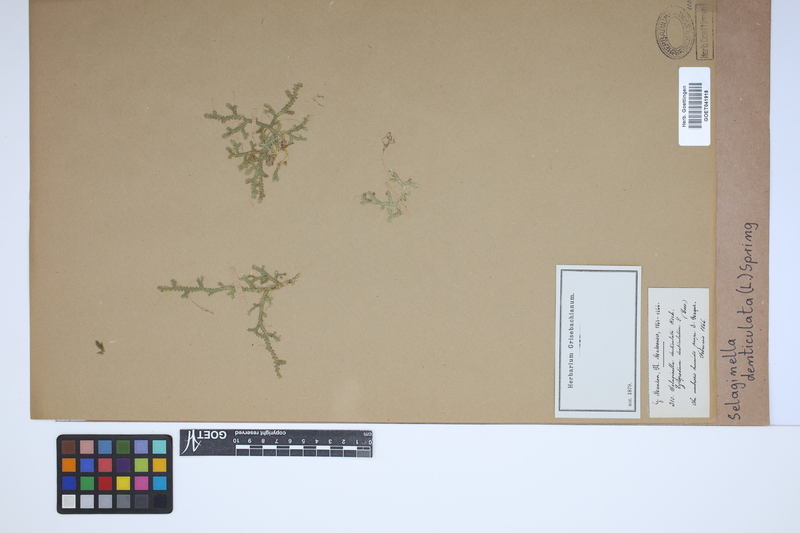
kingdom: Plantae
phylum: Tracheophyta
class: Lycopodiopsida
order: Selaginellales
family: Selaginellaceae
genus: Selaginella
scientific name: Selaginella denticulata
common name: Toothed-leaved clubmoss
